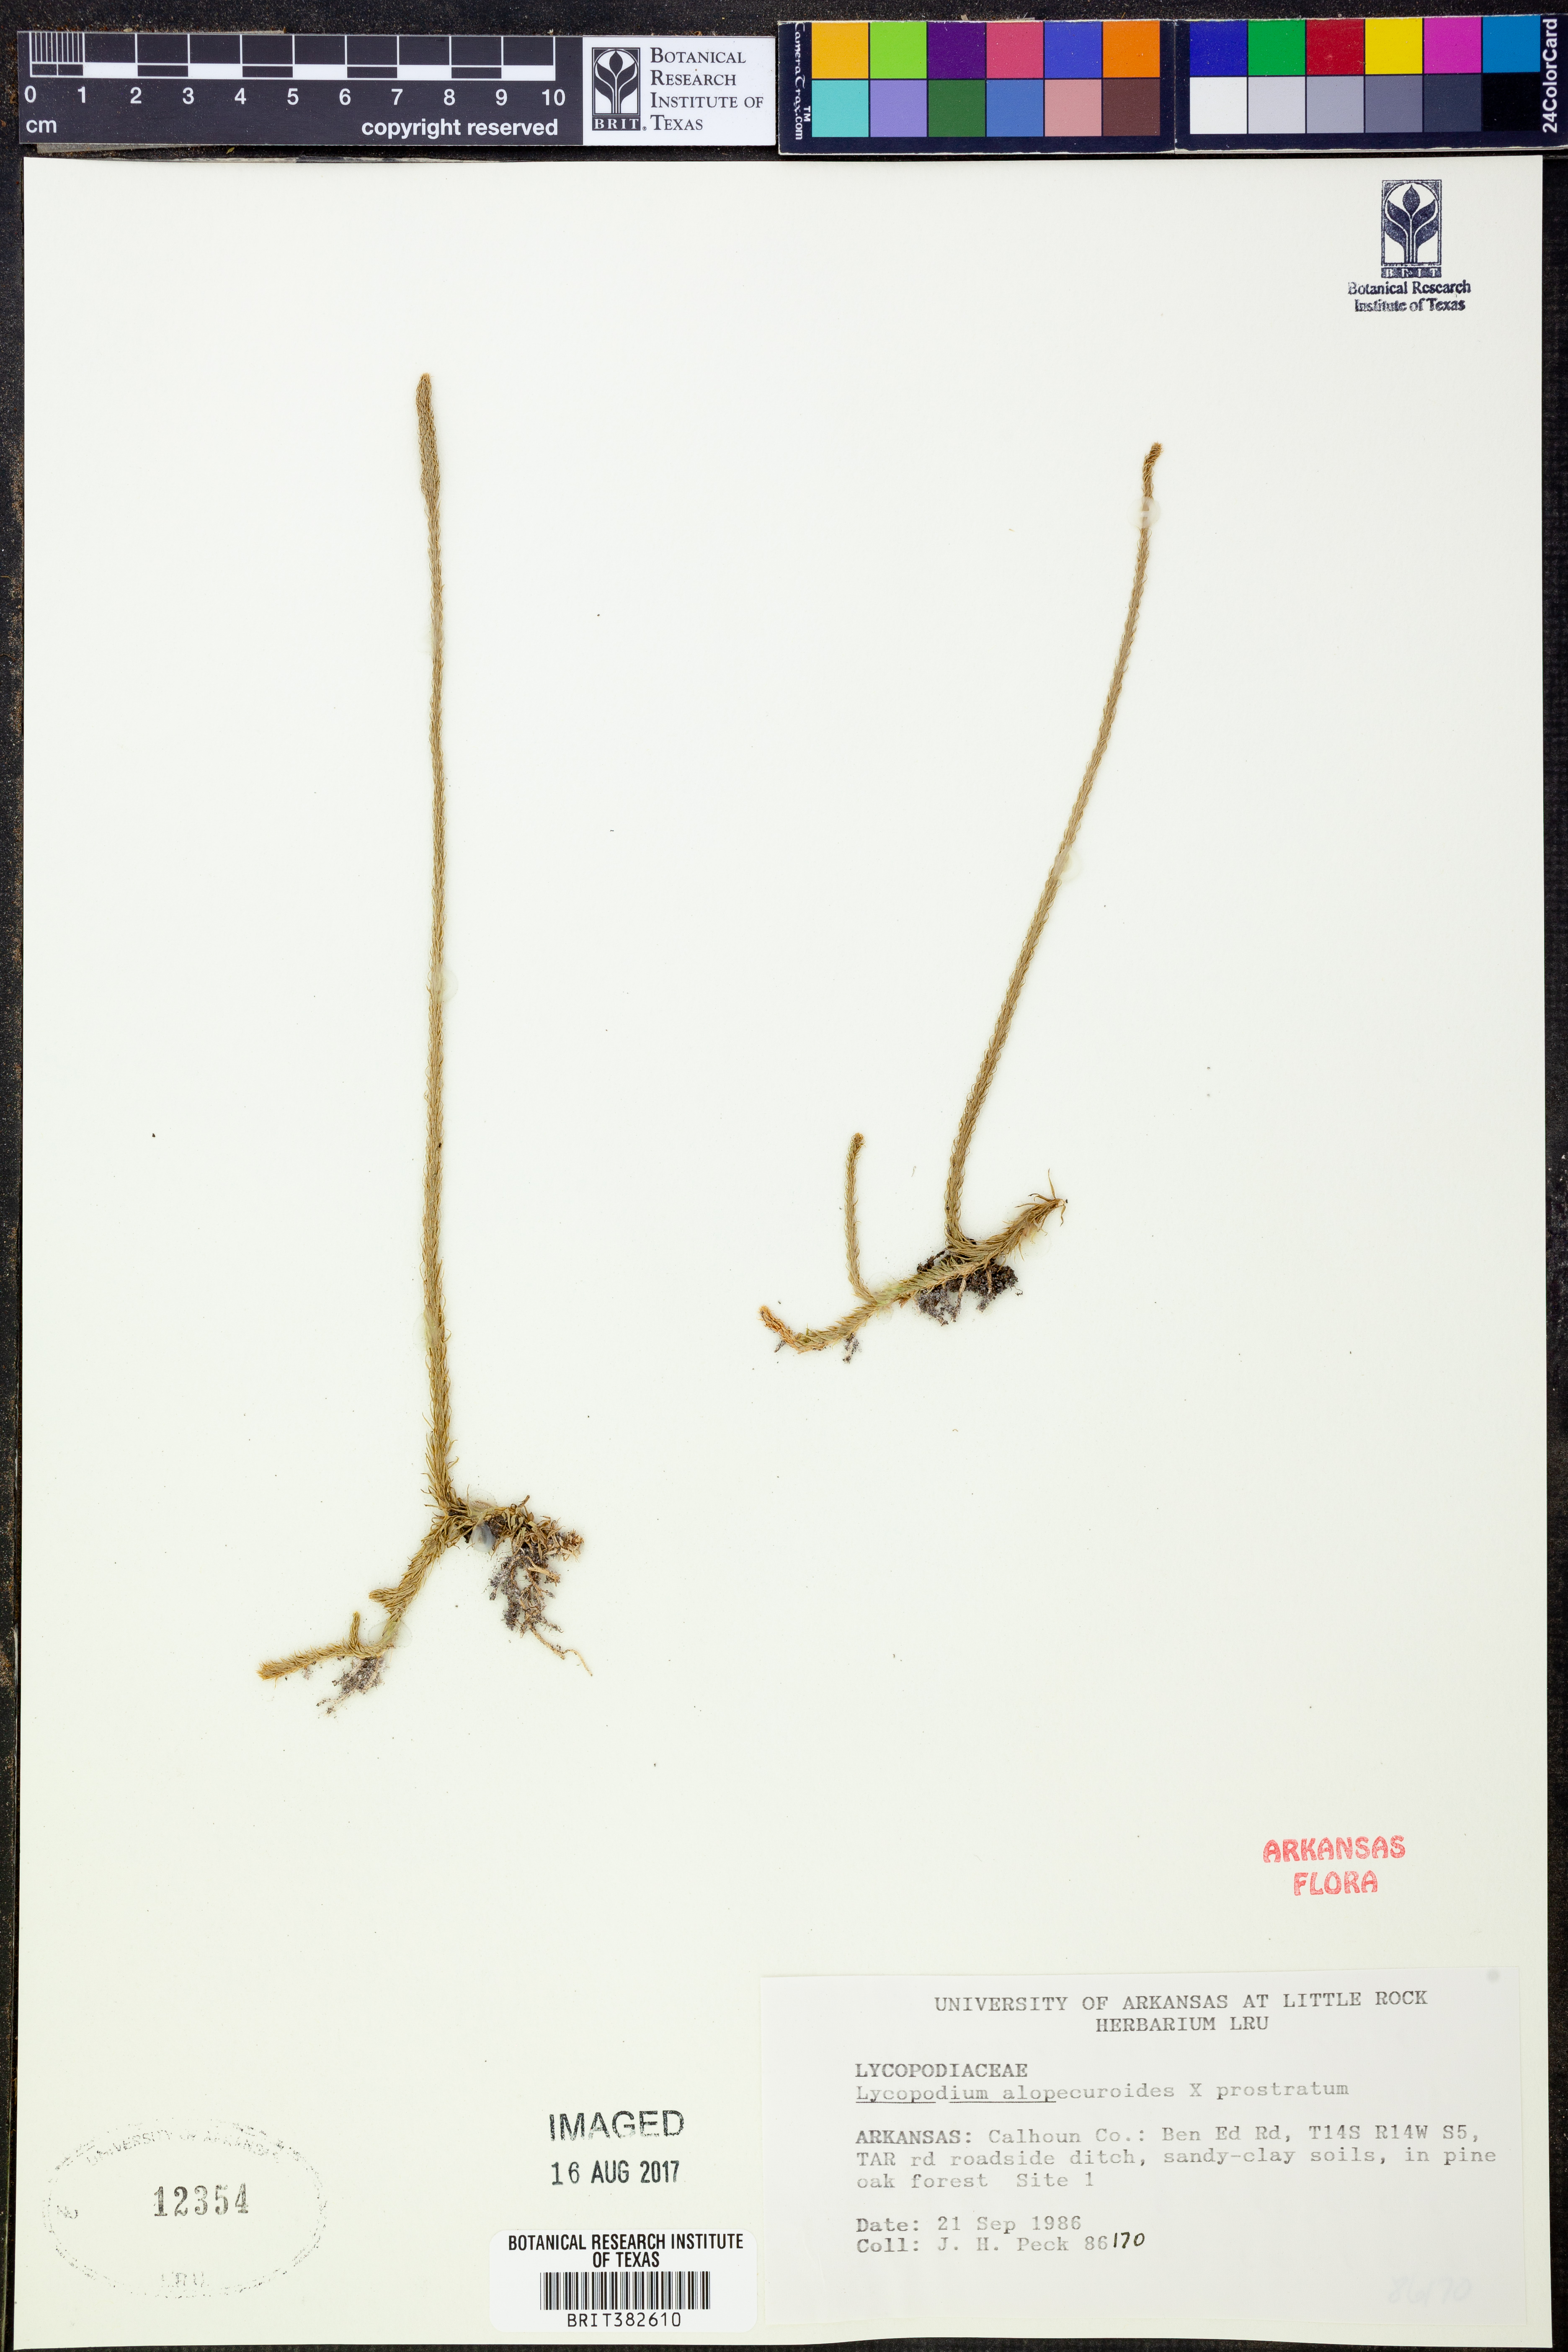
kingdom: Plantae
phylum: Tracheophyta
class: Lycopodiopsida
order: Lycopodiales
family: Lycopodiaceae
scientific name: Lycopodiaceae
